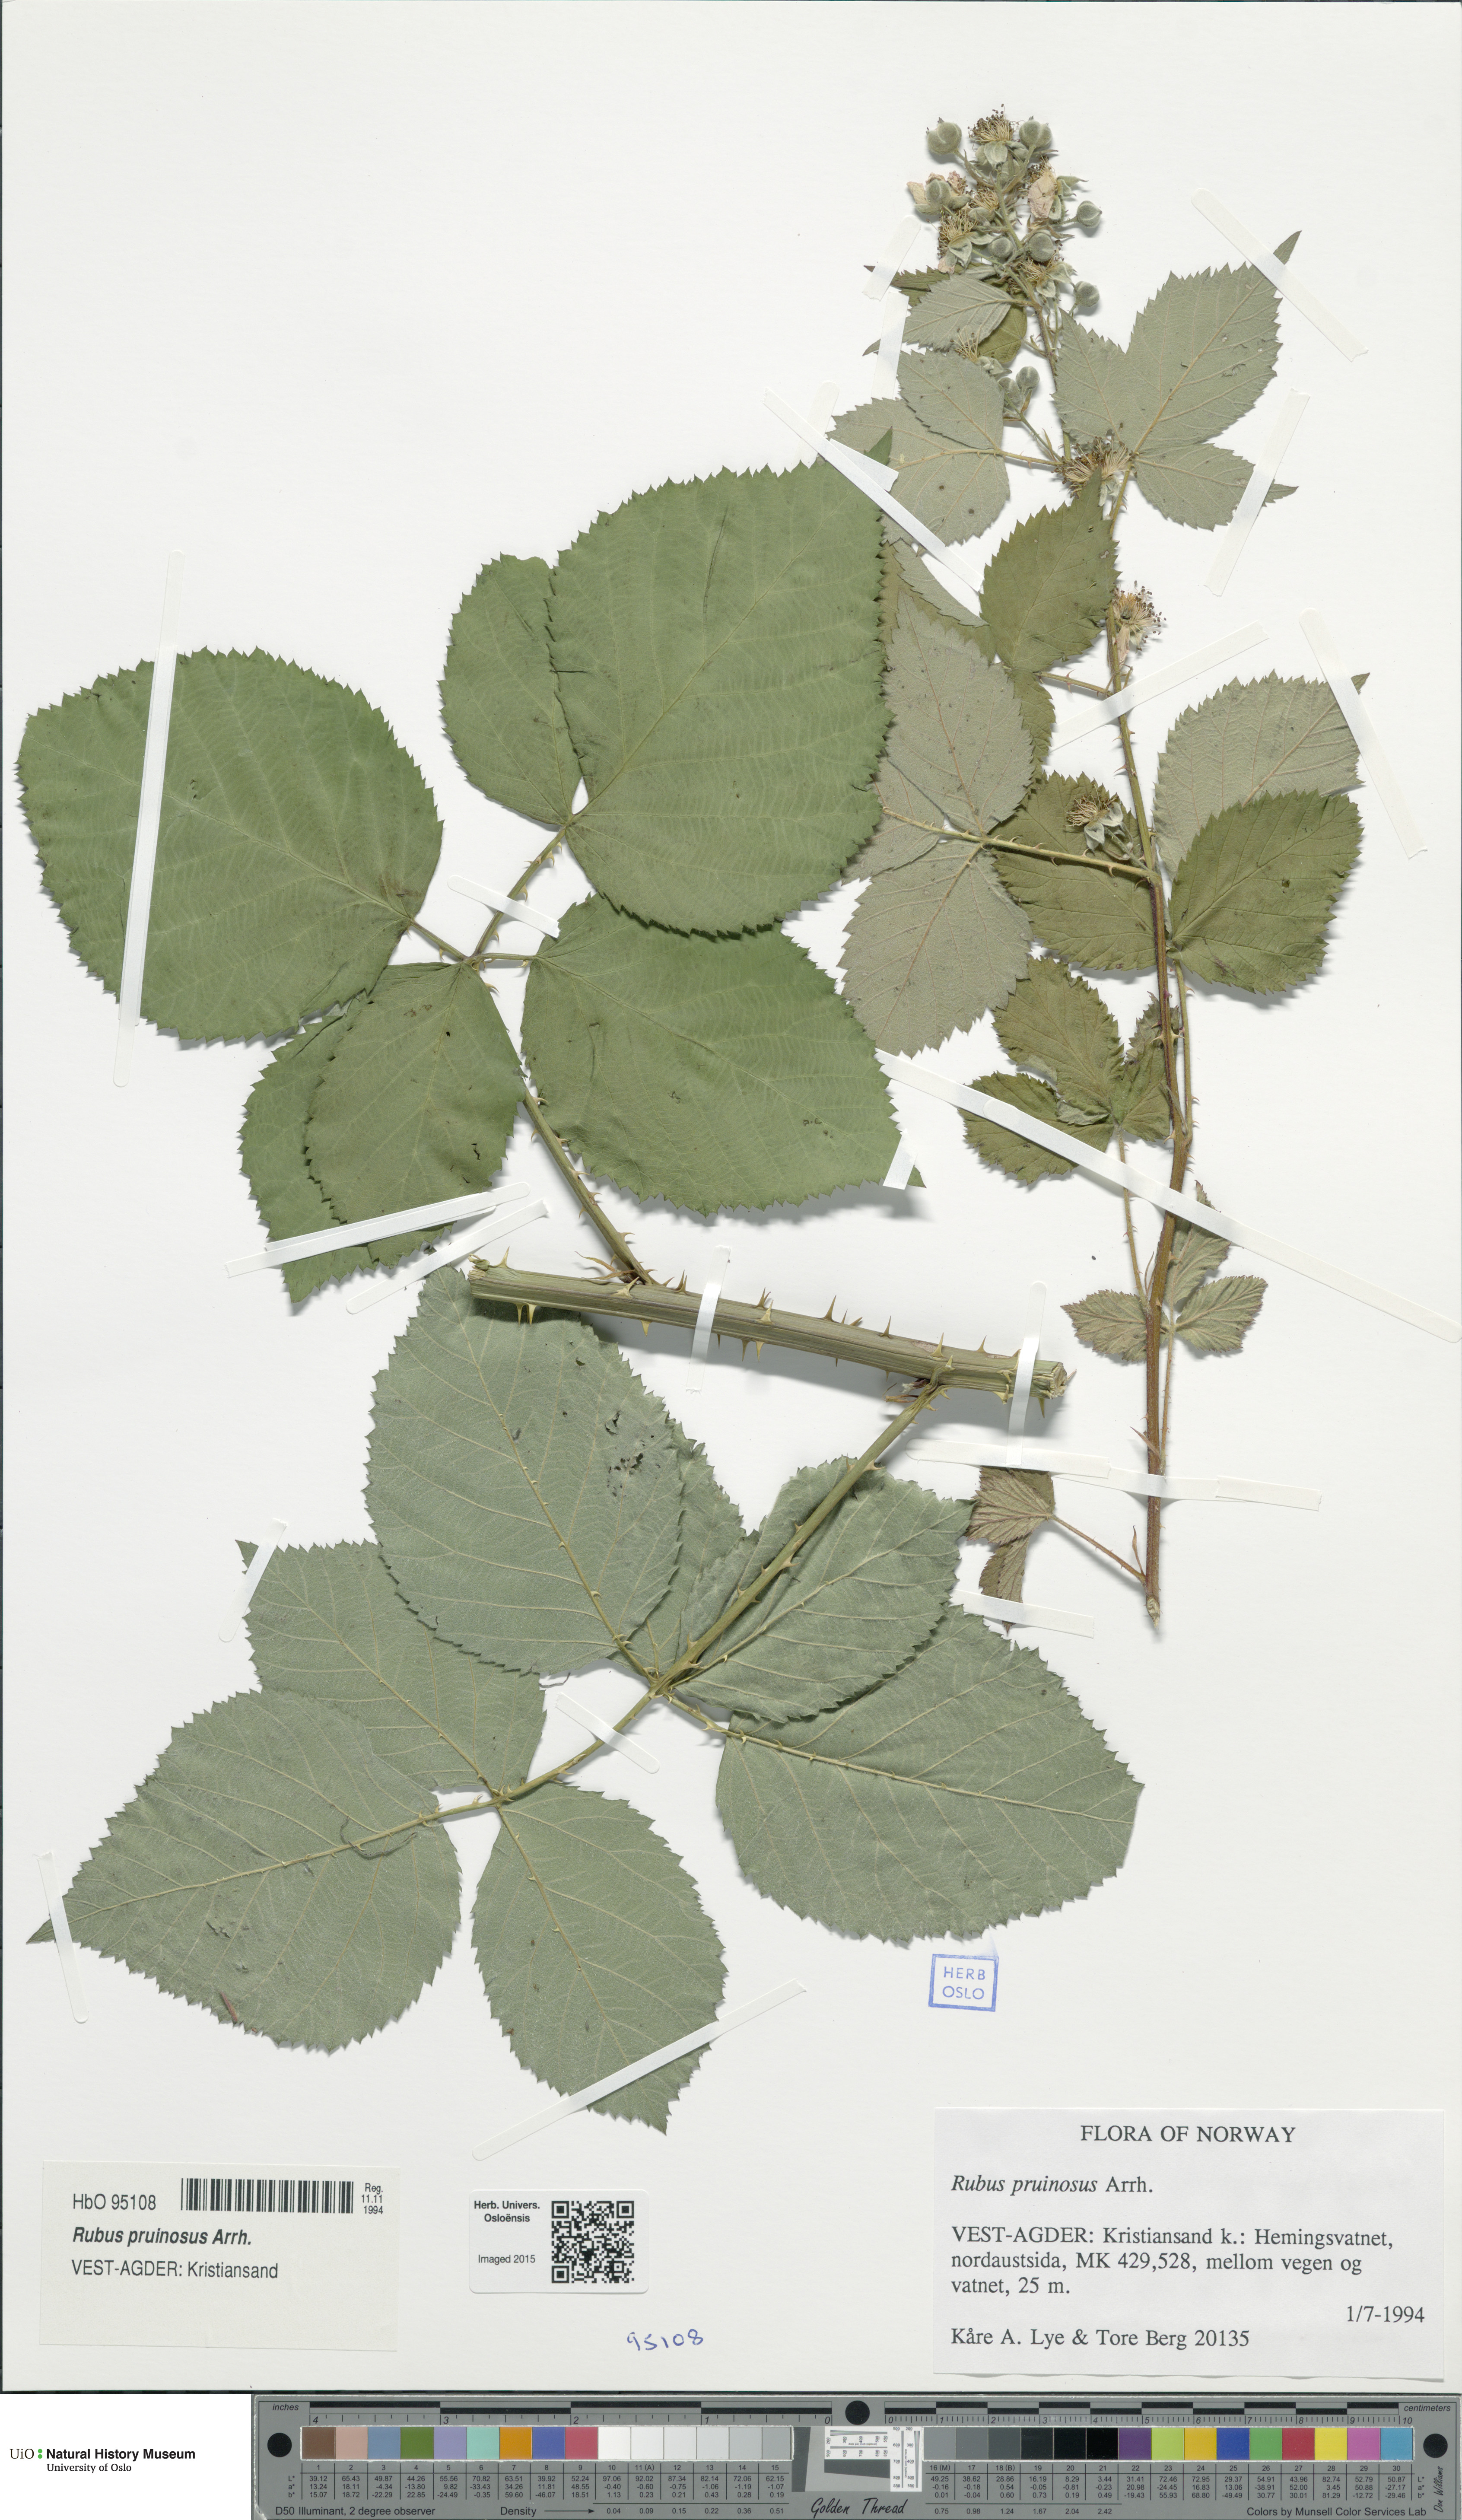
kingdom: Plantae
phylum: Tracheophyta
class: Magnoliopsida
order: Rosales
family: Rosaceae
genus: Rubus
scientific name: Rubus pruinosus
